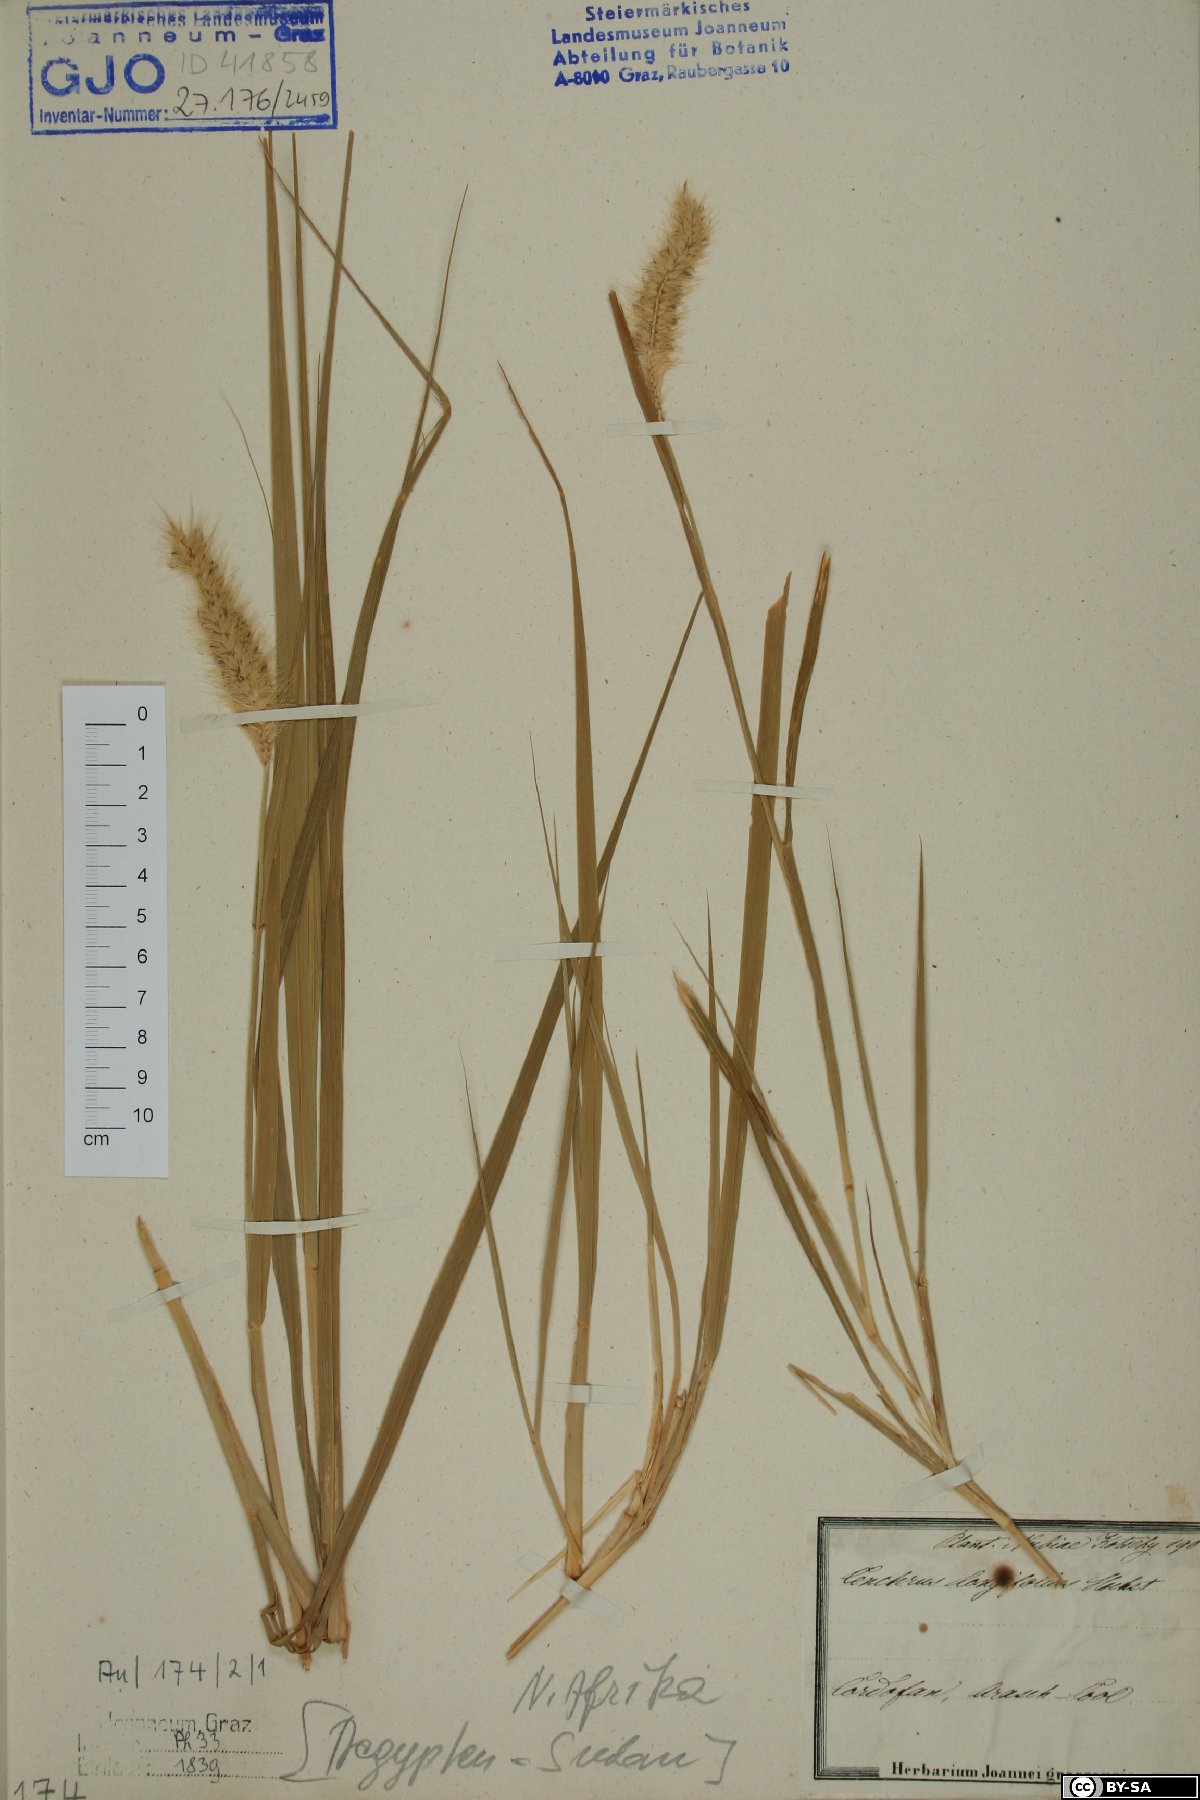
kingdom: Plantae
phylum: Tracheophyta
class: Liliopsida
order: Poales
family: Poaceae
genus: Cenchrus
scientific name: Cenchrus ciliaris
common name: Buffelgrass
